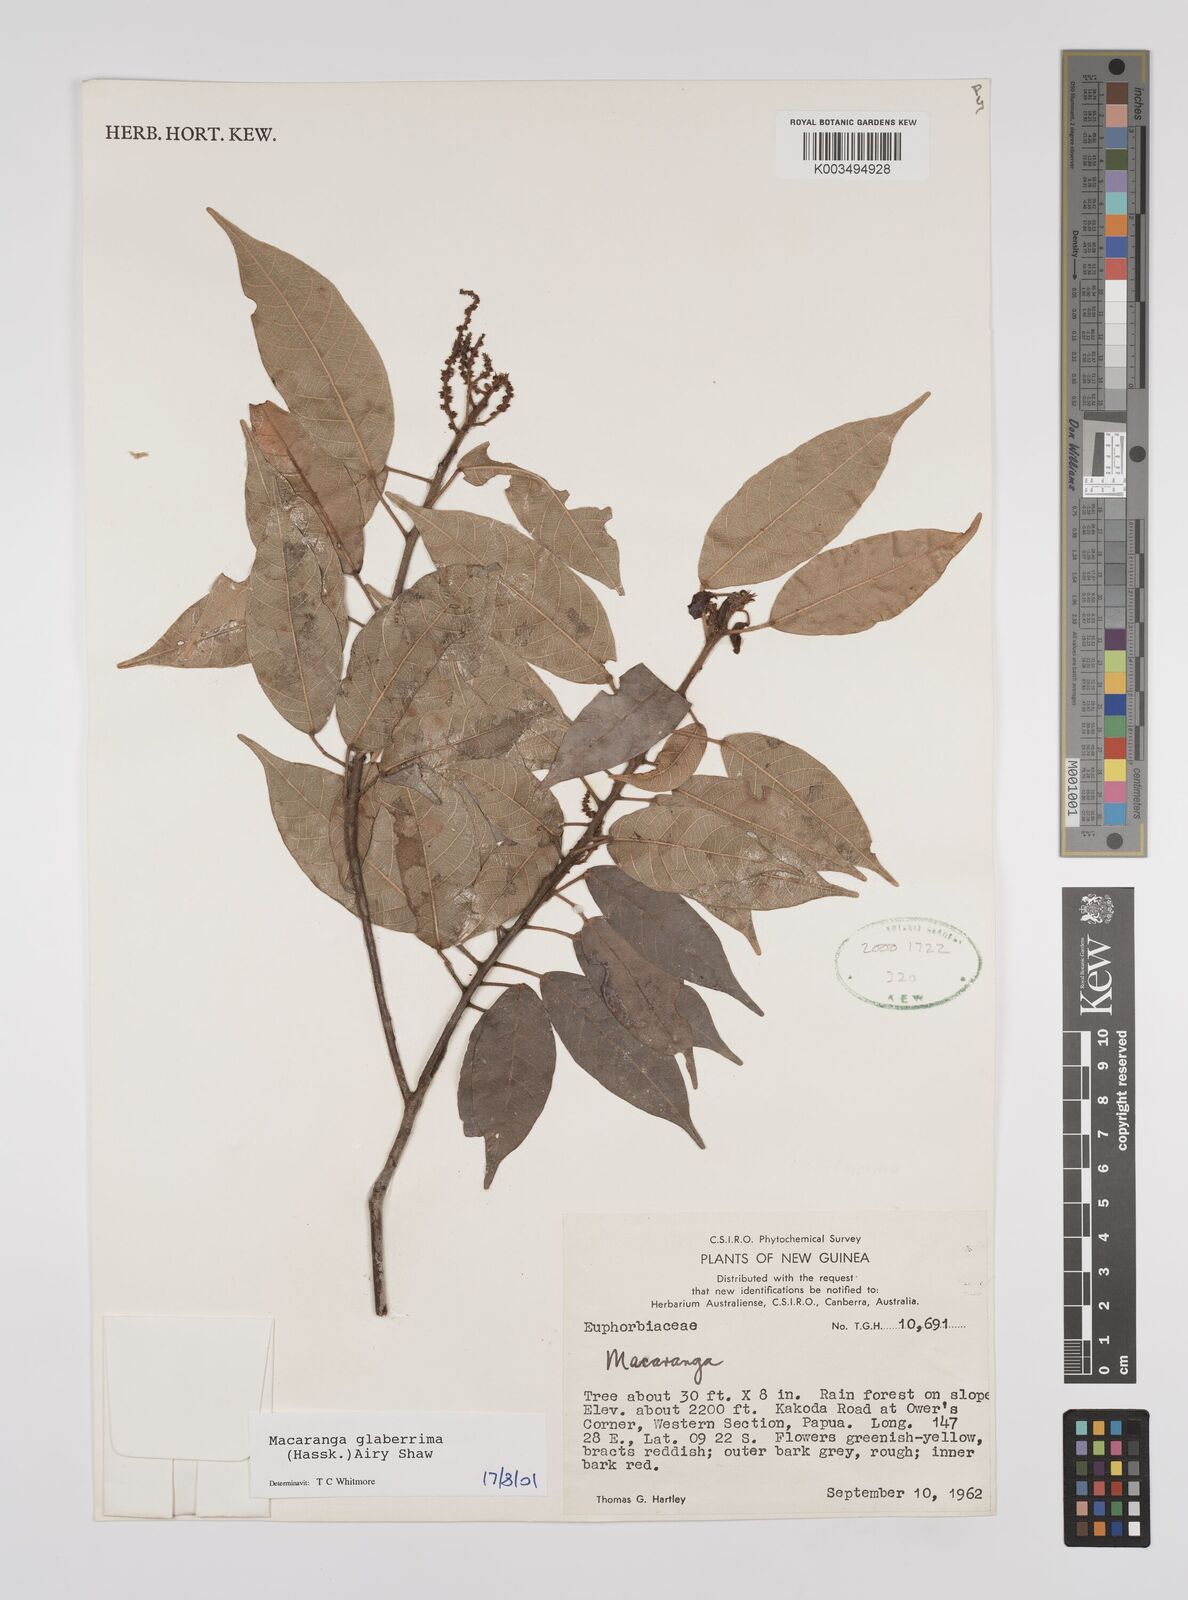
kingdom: Plantae
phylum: Tracheophyta
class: Magnoliopsida
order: Malpighiales
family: Euphorbiaceae
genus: Macaranga
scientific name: Macaranga glaberrima
